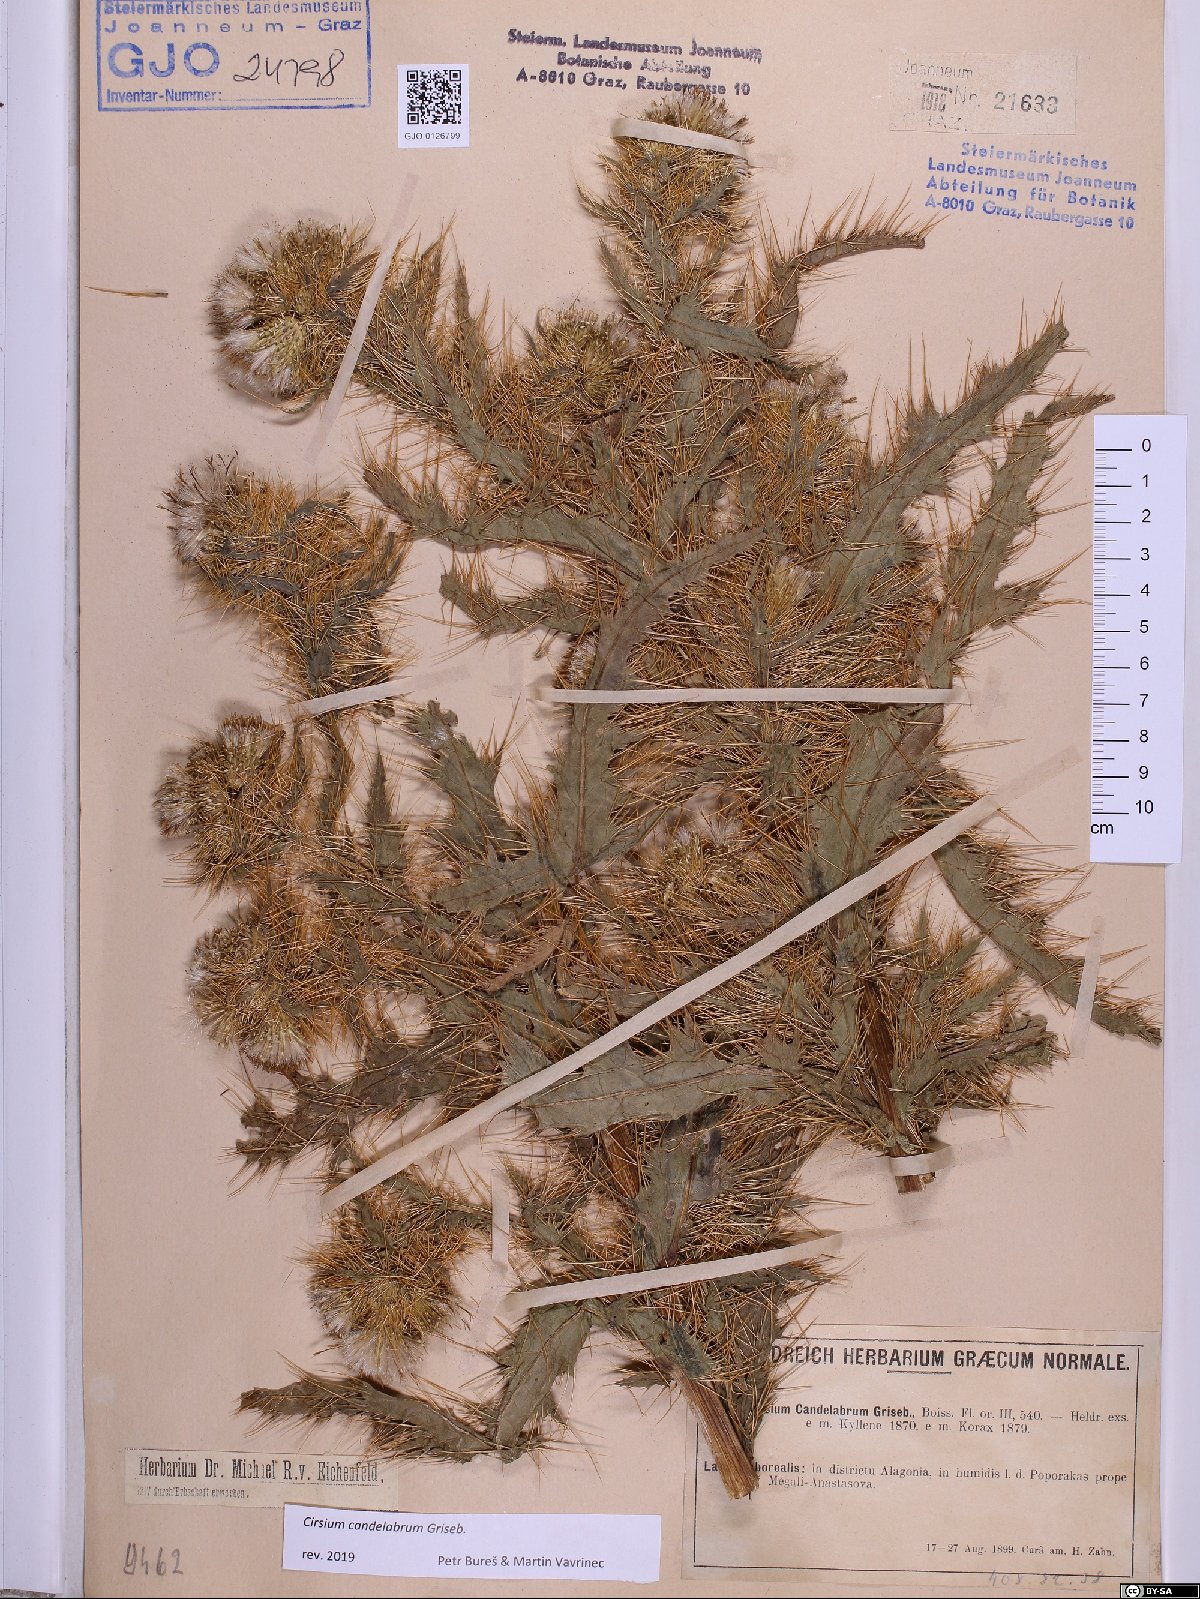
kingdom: Plantae
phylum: Tracheophyta
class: Magnoliopsida
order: Asterales
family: Asteraceae
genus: Cirsium
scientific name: Cirsium candelabrum
